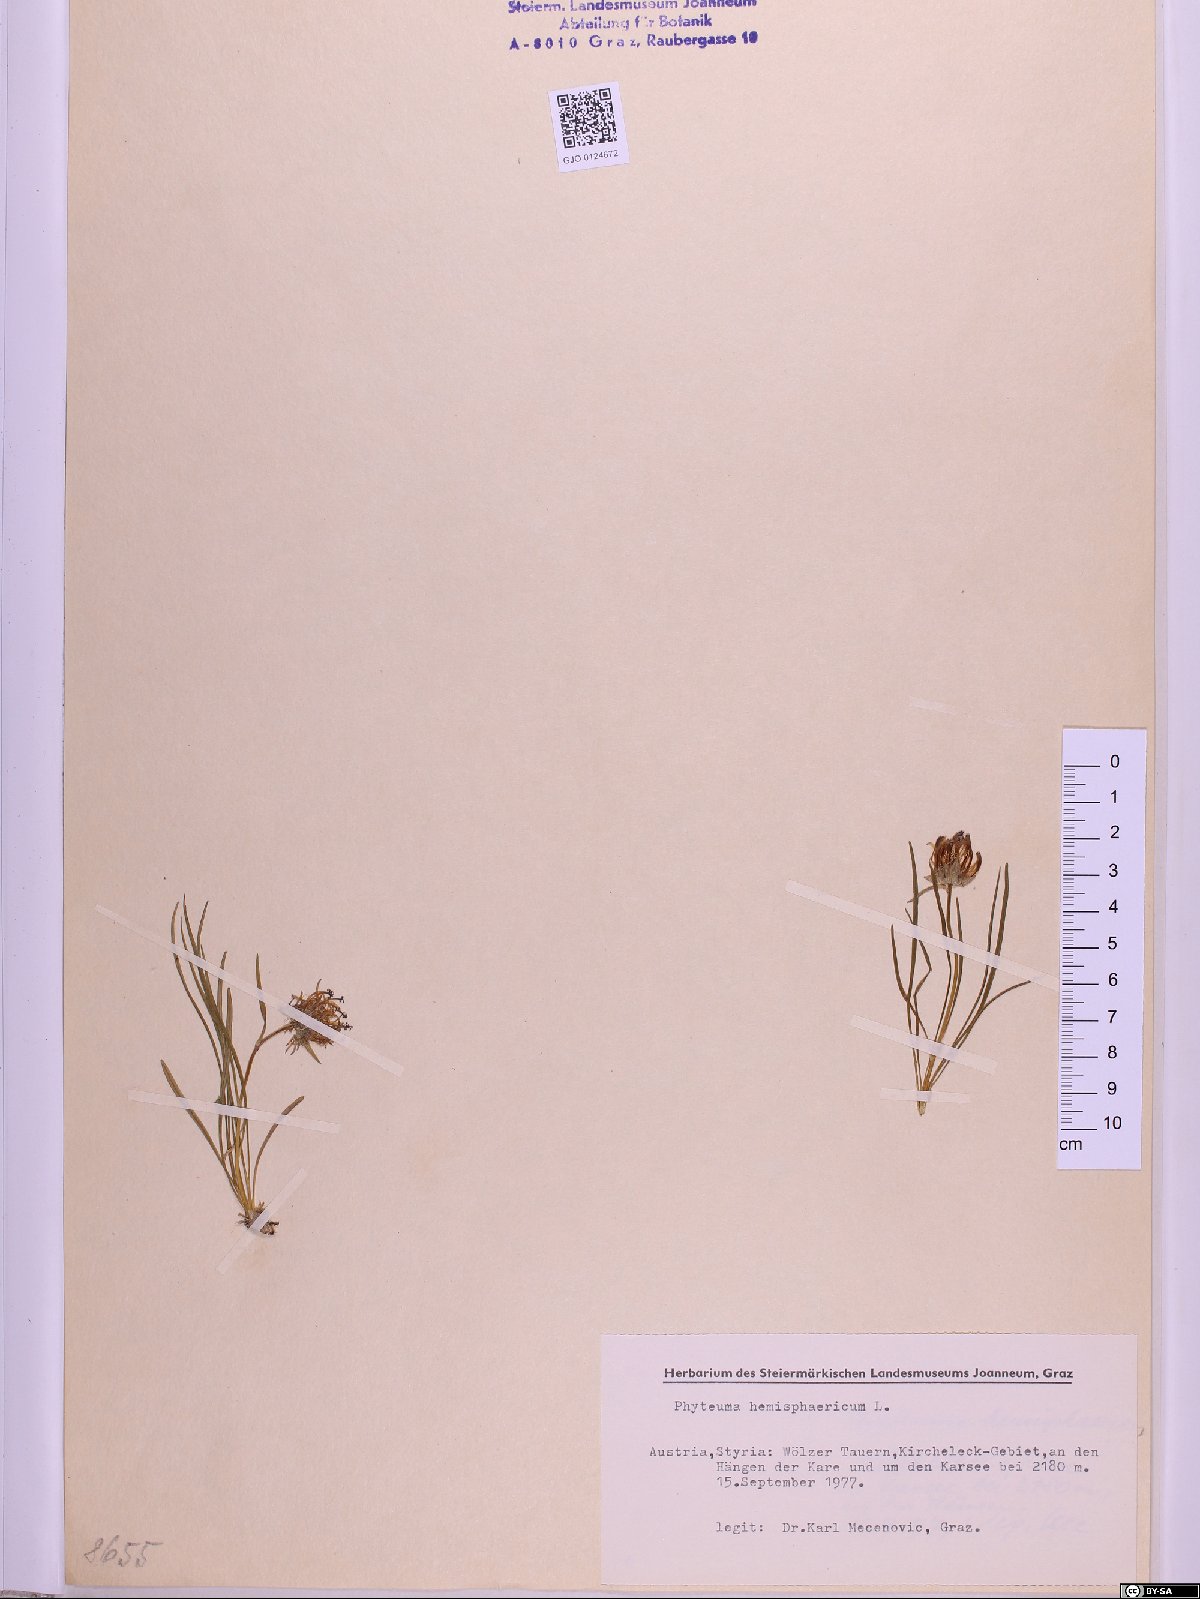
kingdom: Plantae
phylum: Tracheophyta
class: Magnoliopsida
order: Asterales
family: Campanulaceae
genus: Phyteuma
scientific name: Phyteuma hemisphaericum
